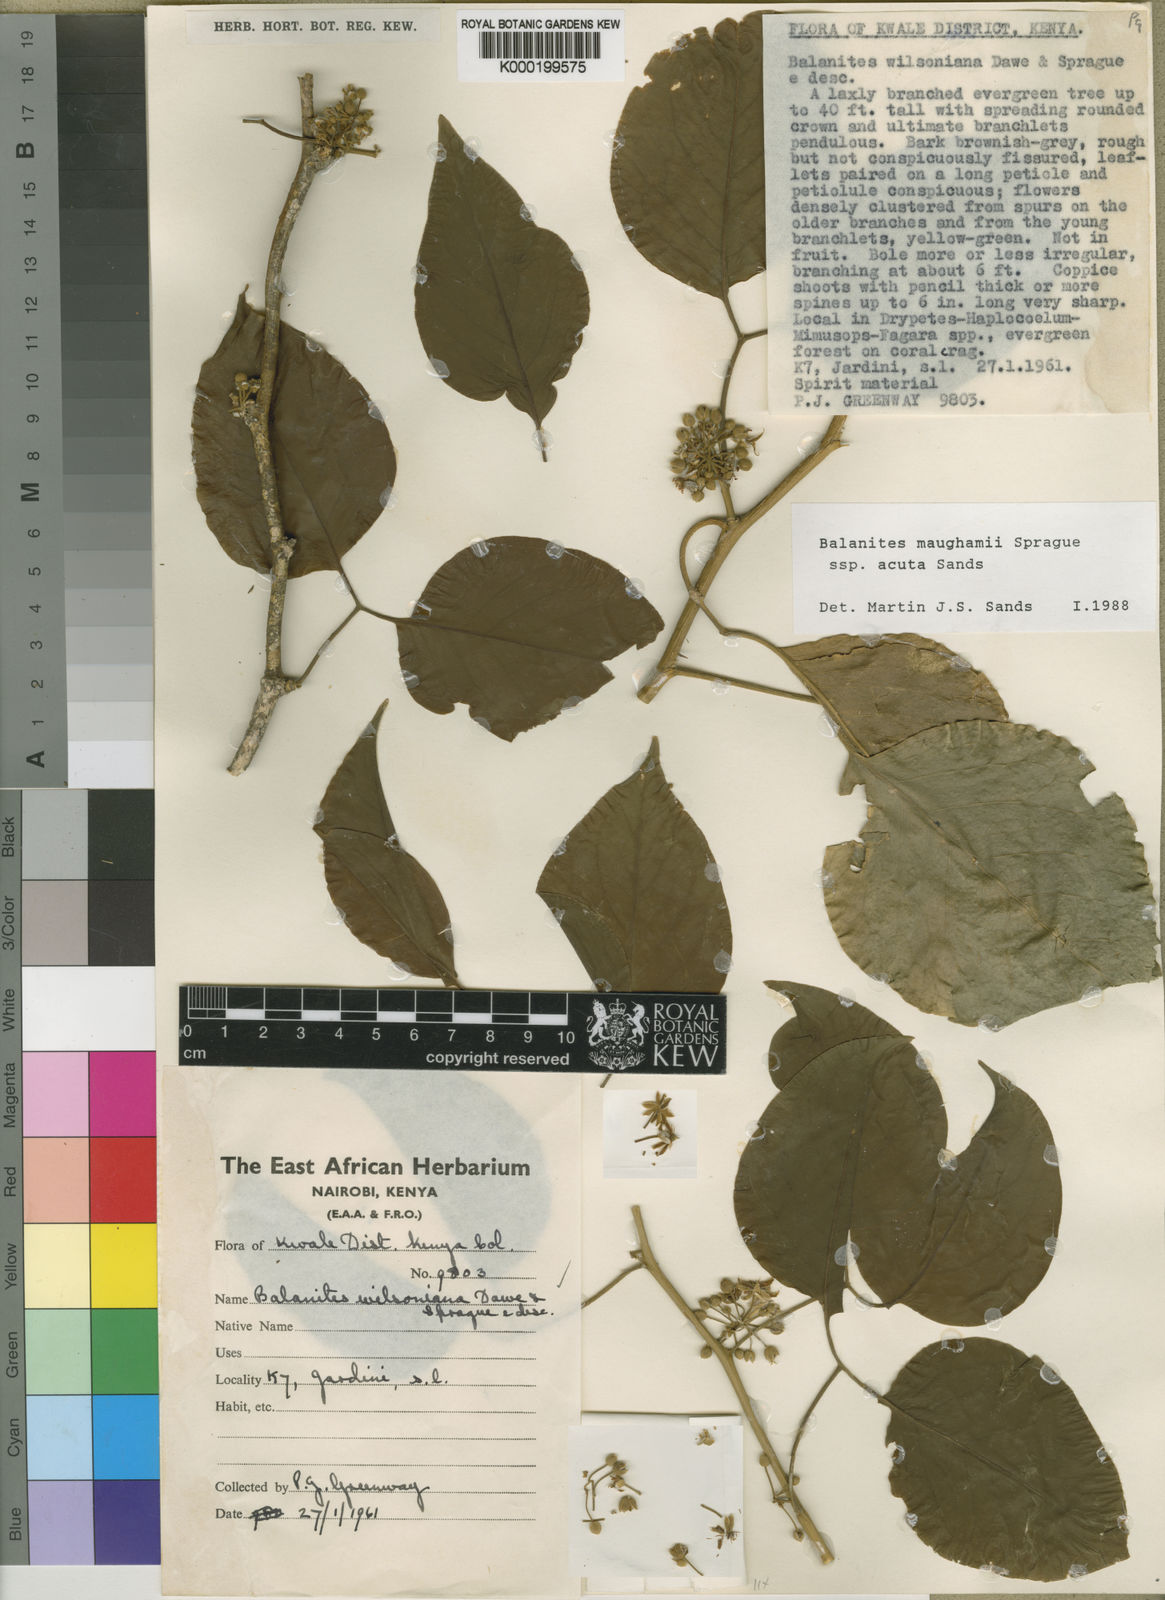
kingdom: Plantae
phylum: Tracheophyta
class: Magnoliopsida
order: Zygophyllales
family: Zygophyllaceae
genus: Balanites
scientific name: Balanites wilsoniana
